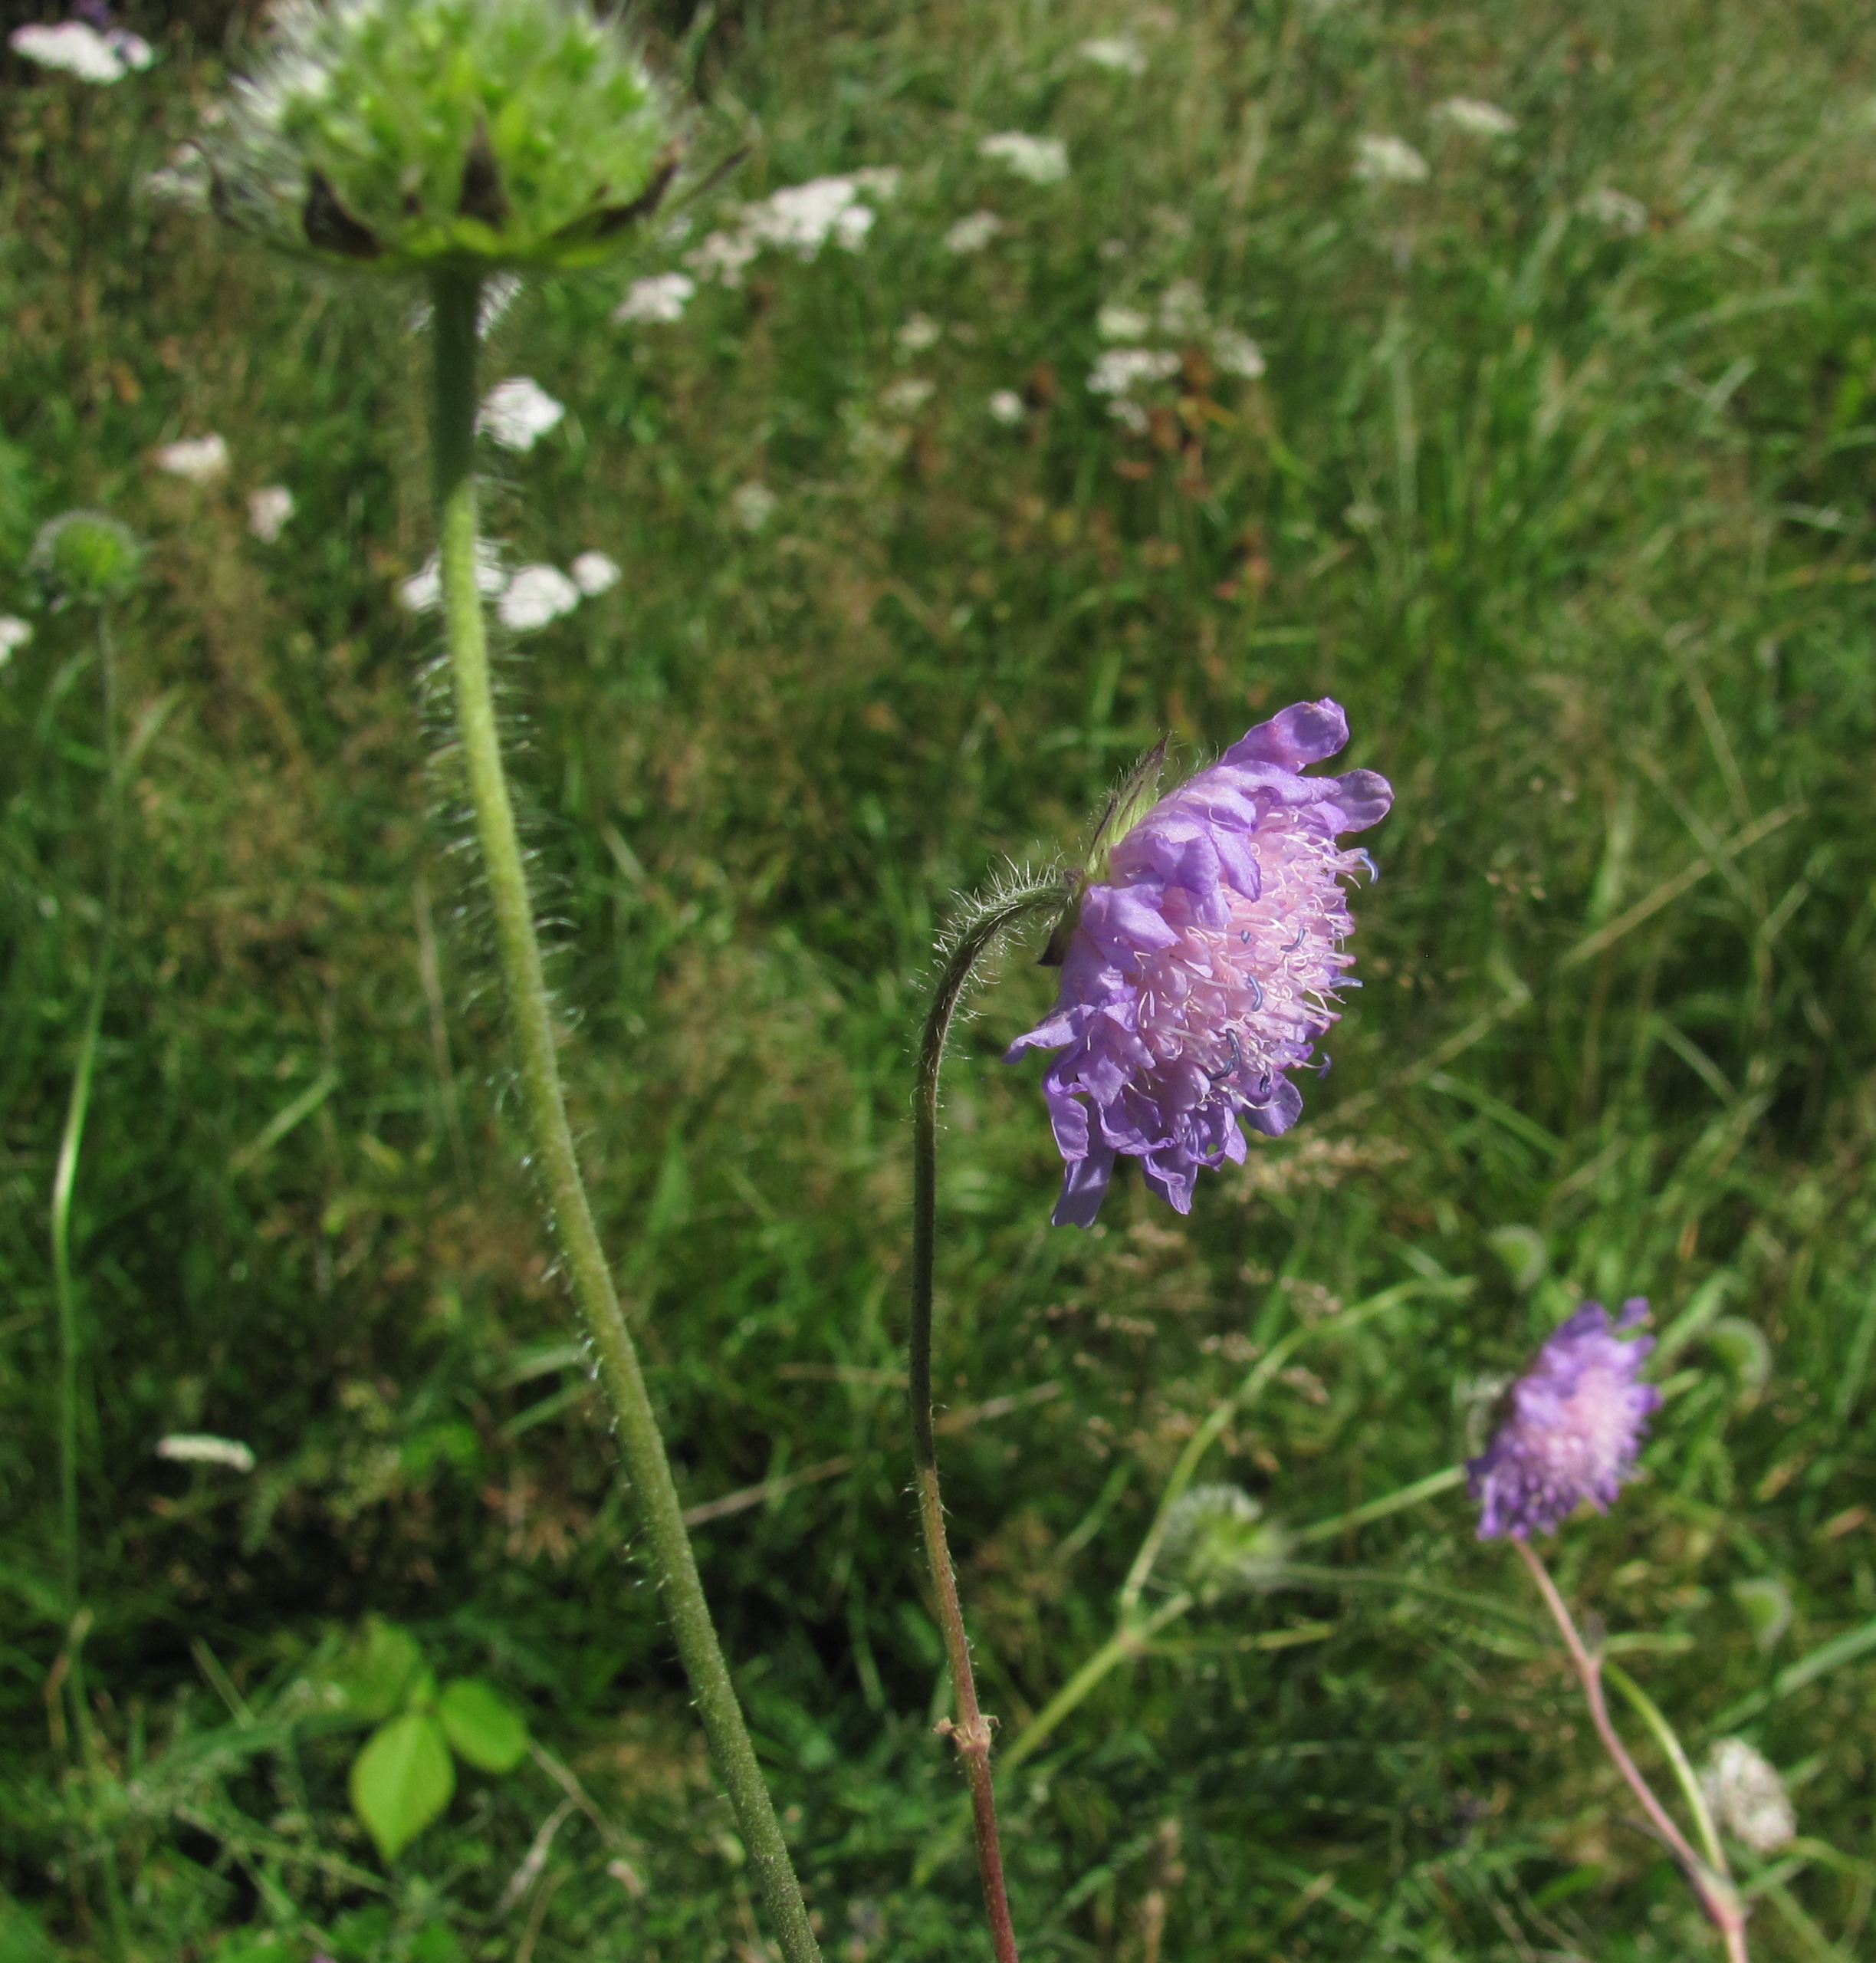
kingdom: Plantae
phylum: Tracheophyta
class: Magnoliopsida
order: Dipsacales
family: Caprifoliaceae
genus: Knautia
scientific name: Knautia arvensis
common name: Blåhat
